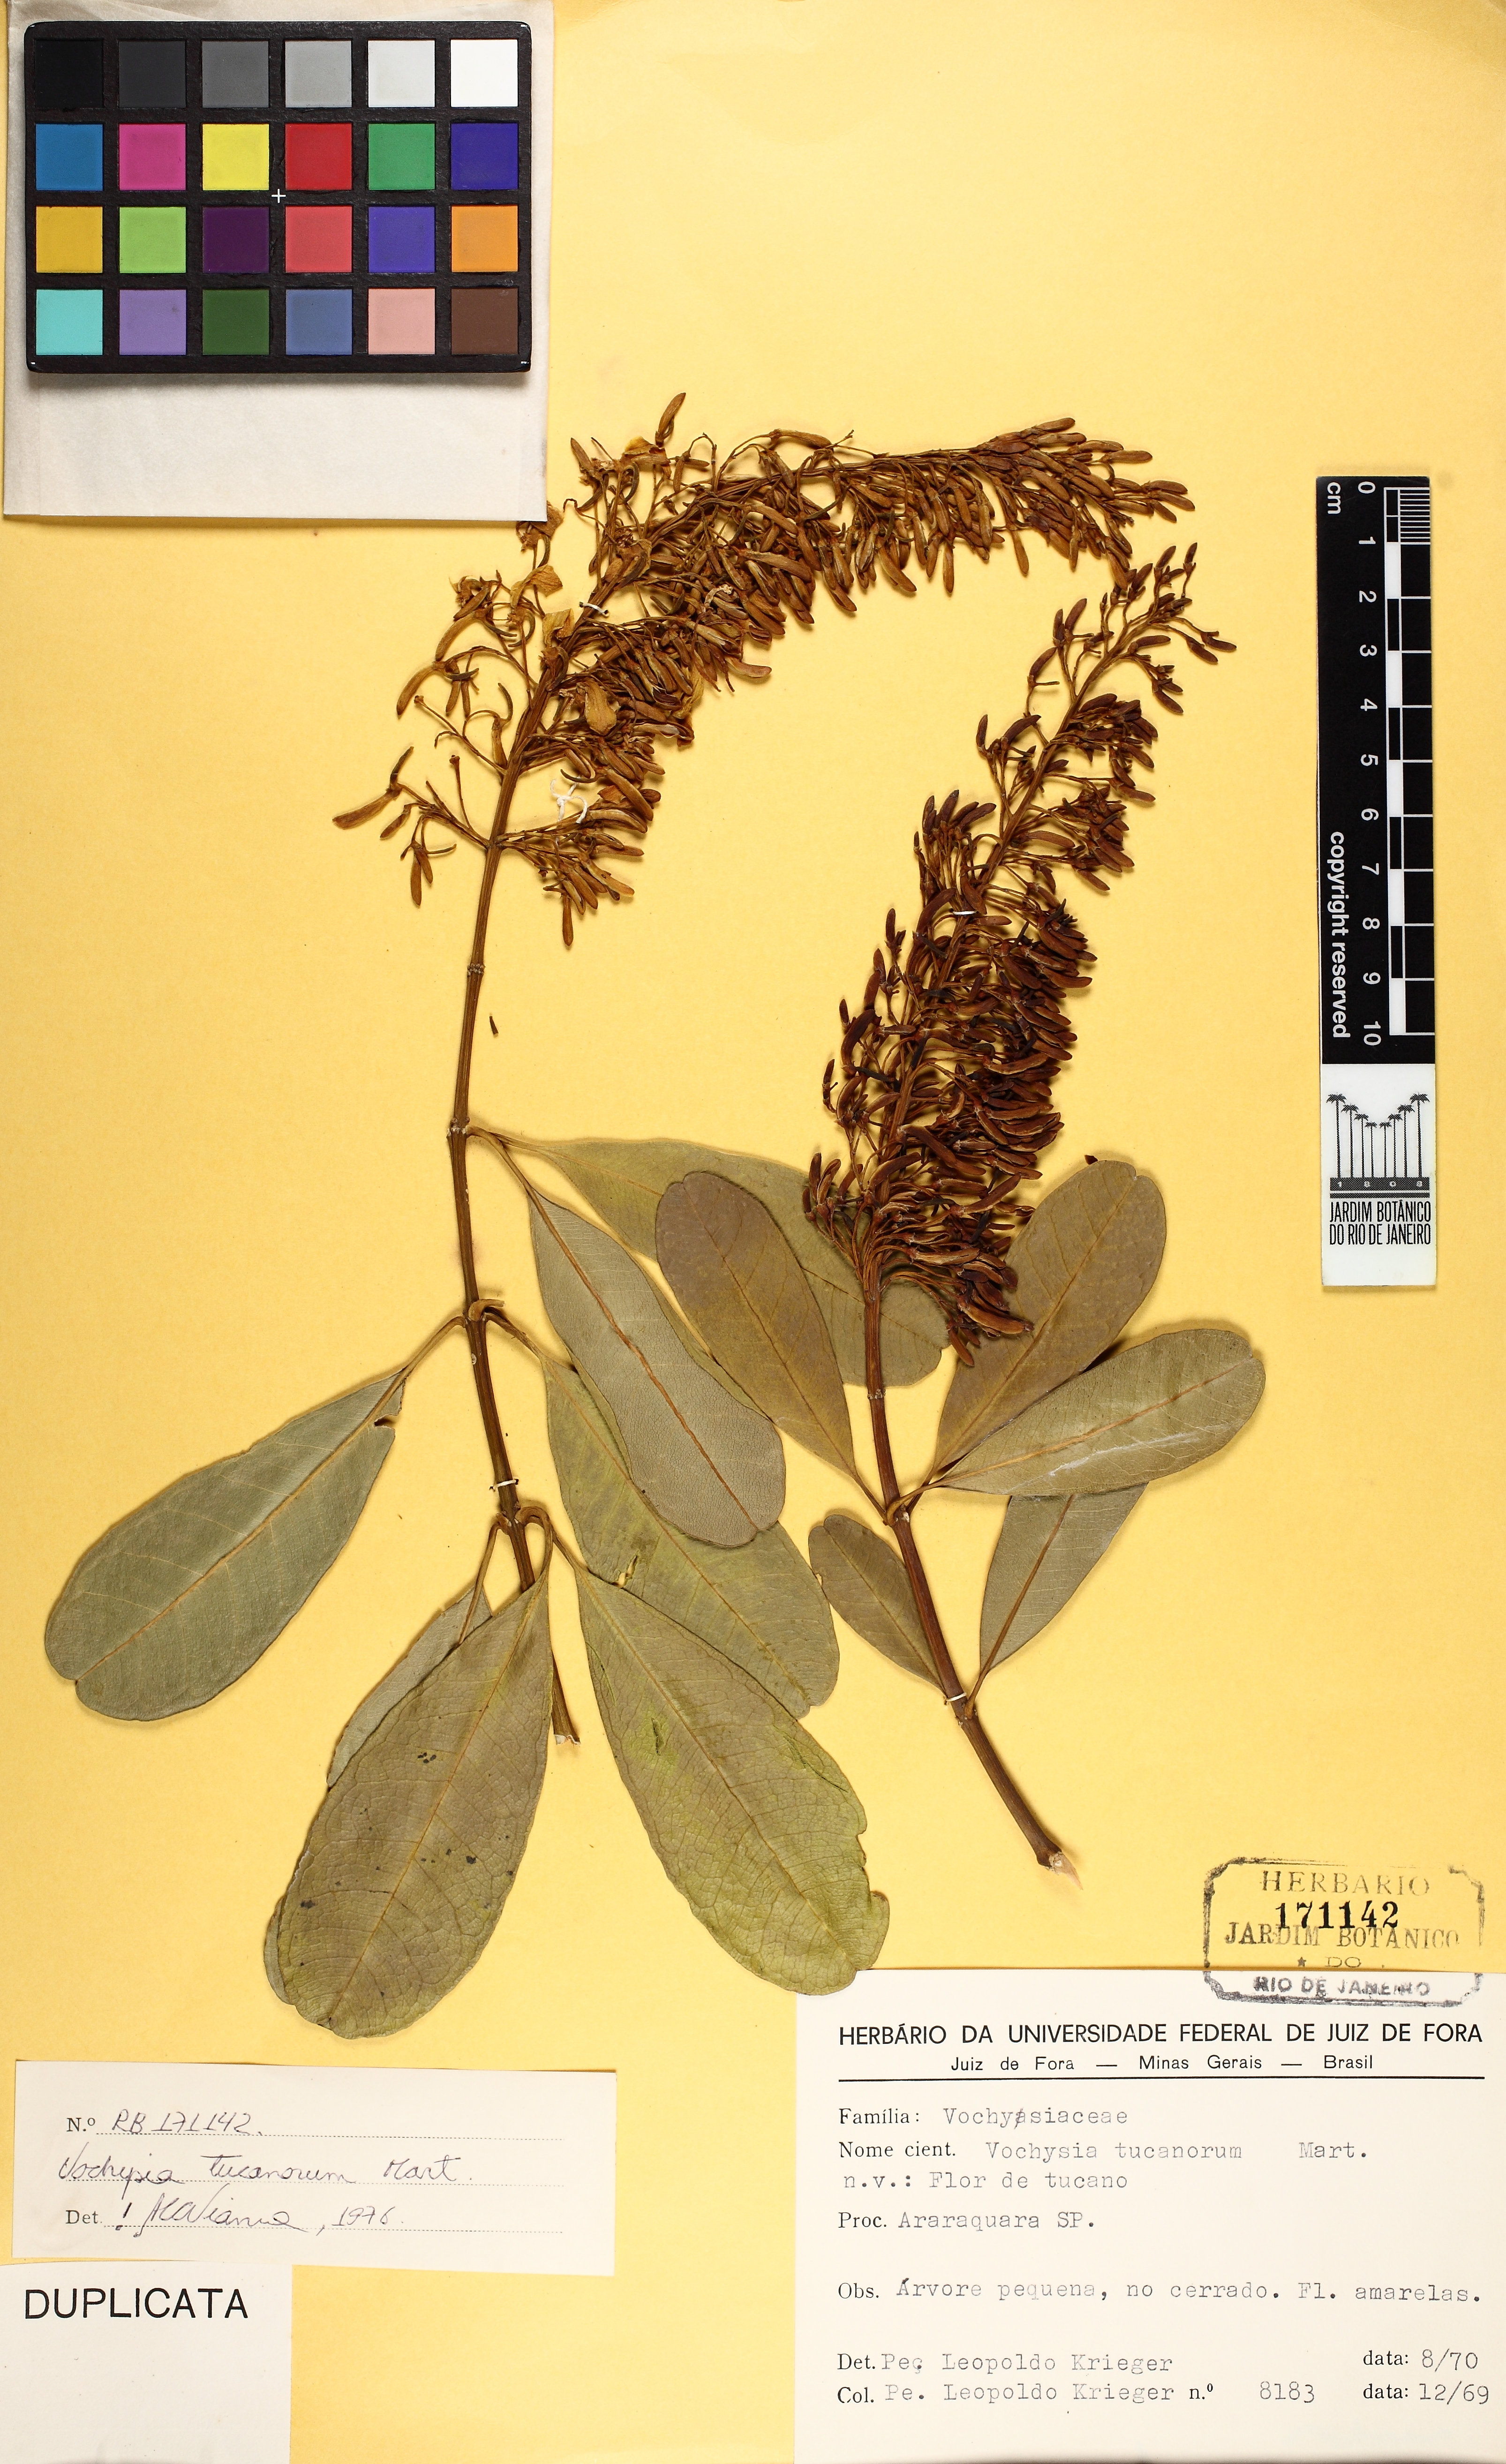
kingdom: Plantae
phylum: Tracheophyta
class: Magnoliopsida
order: Myrtales
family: Vochysiaceae
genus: Vochysia
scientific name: Vochysia tucanorum
